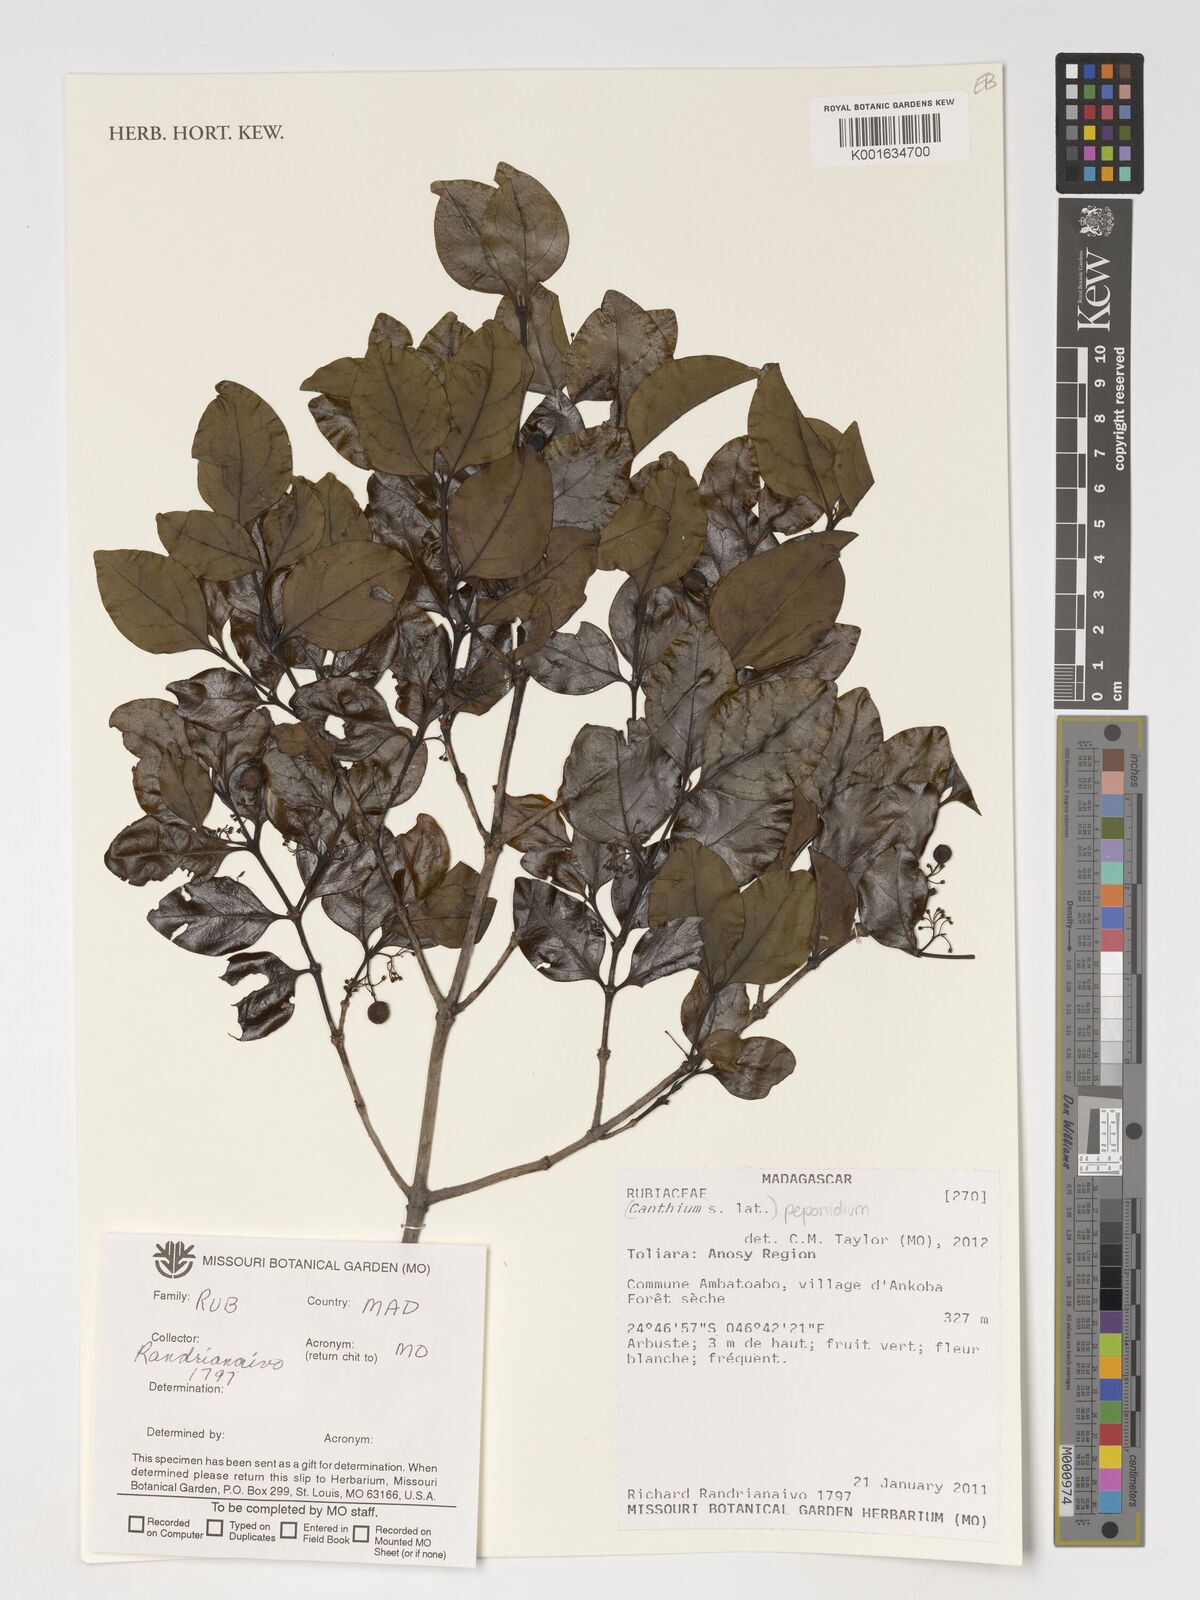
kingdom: Plantae
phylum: Tracheophyta
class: Magnoliopsida
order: Gentianales
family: Rubiaceae
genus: Peponidium
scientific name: Peponidium
